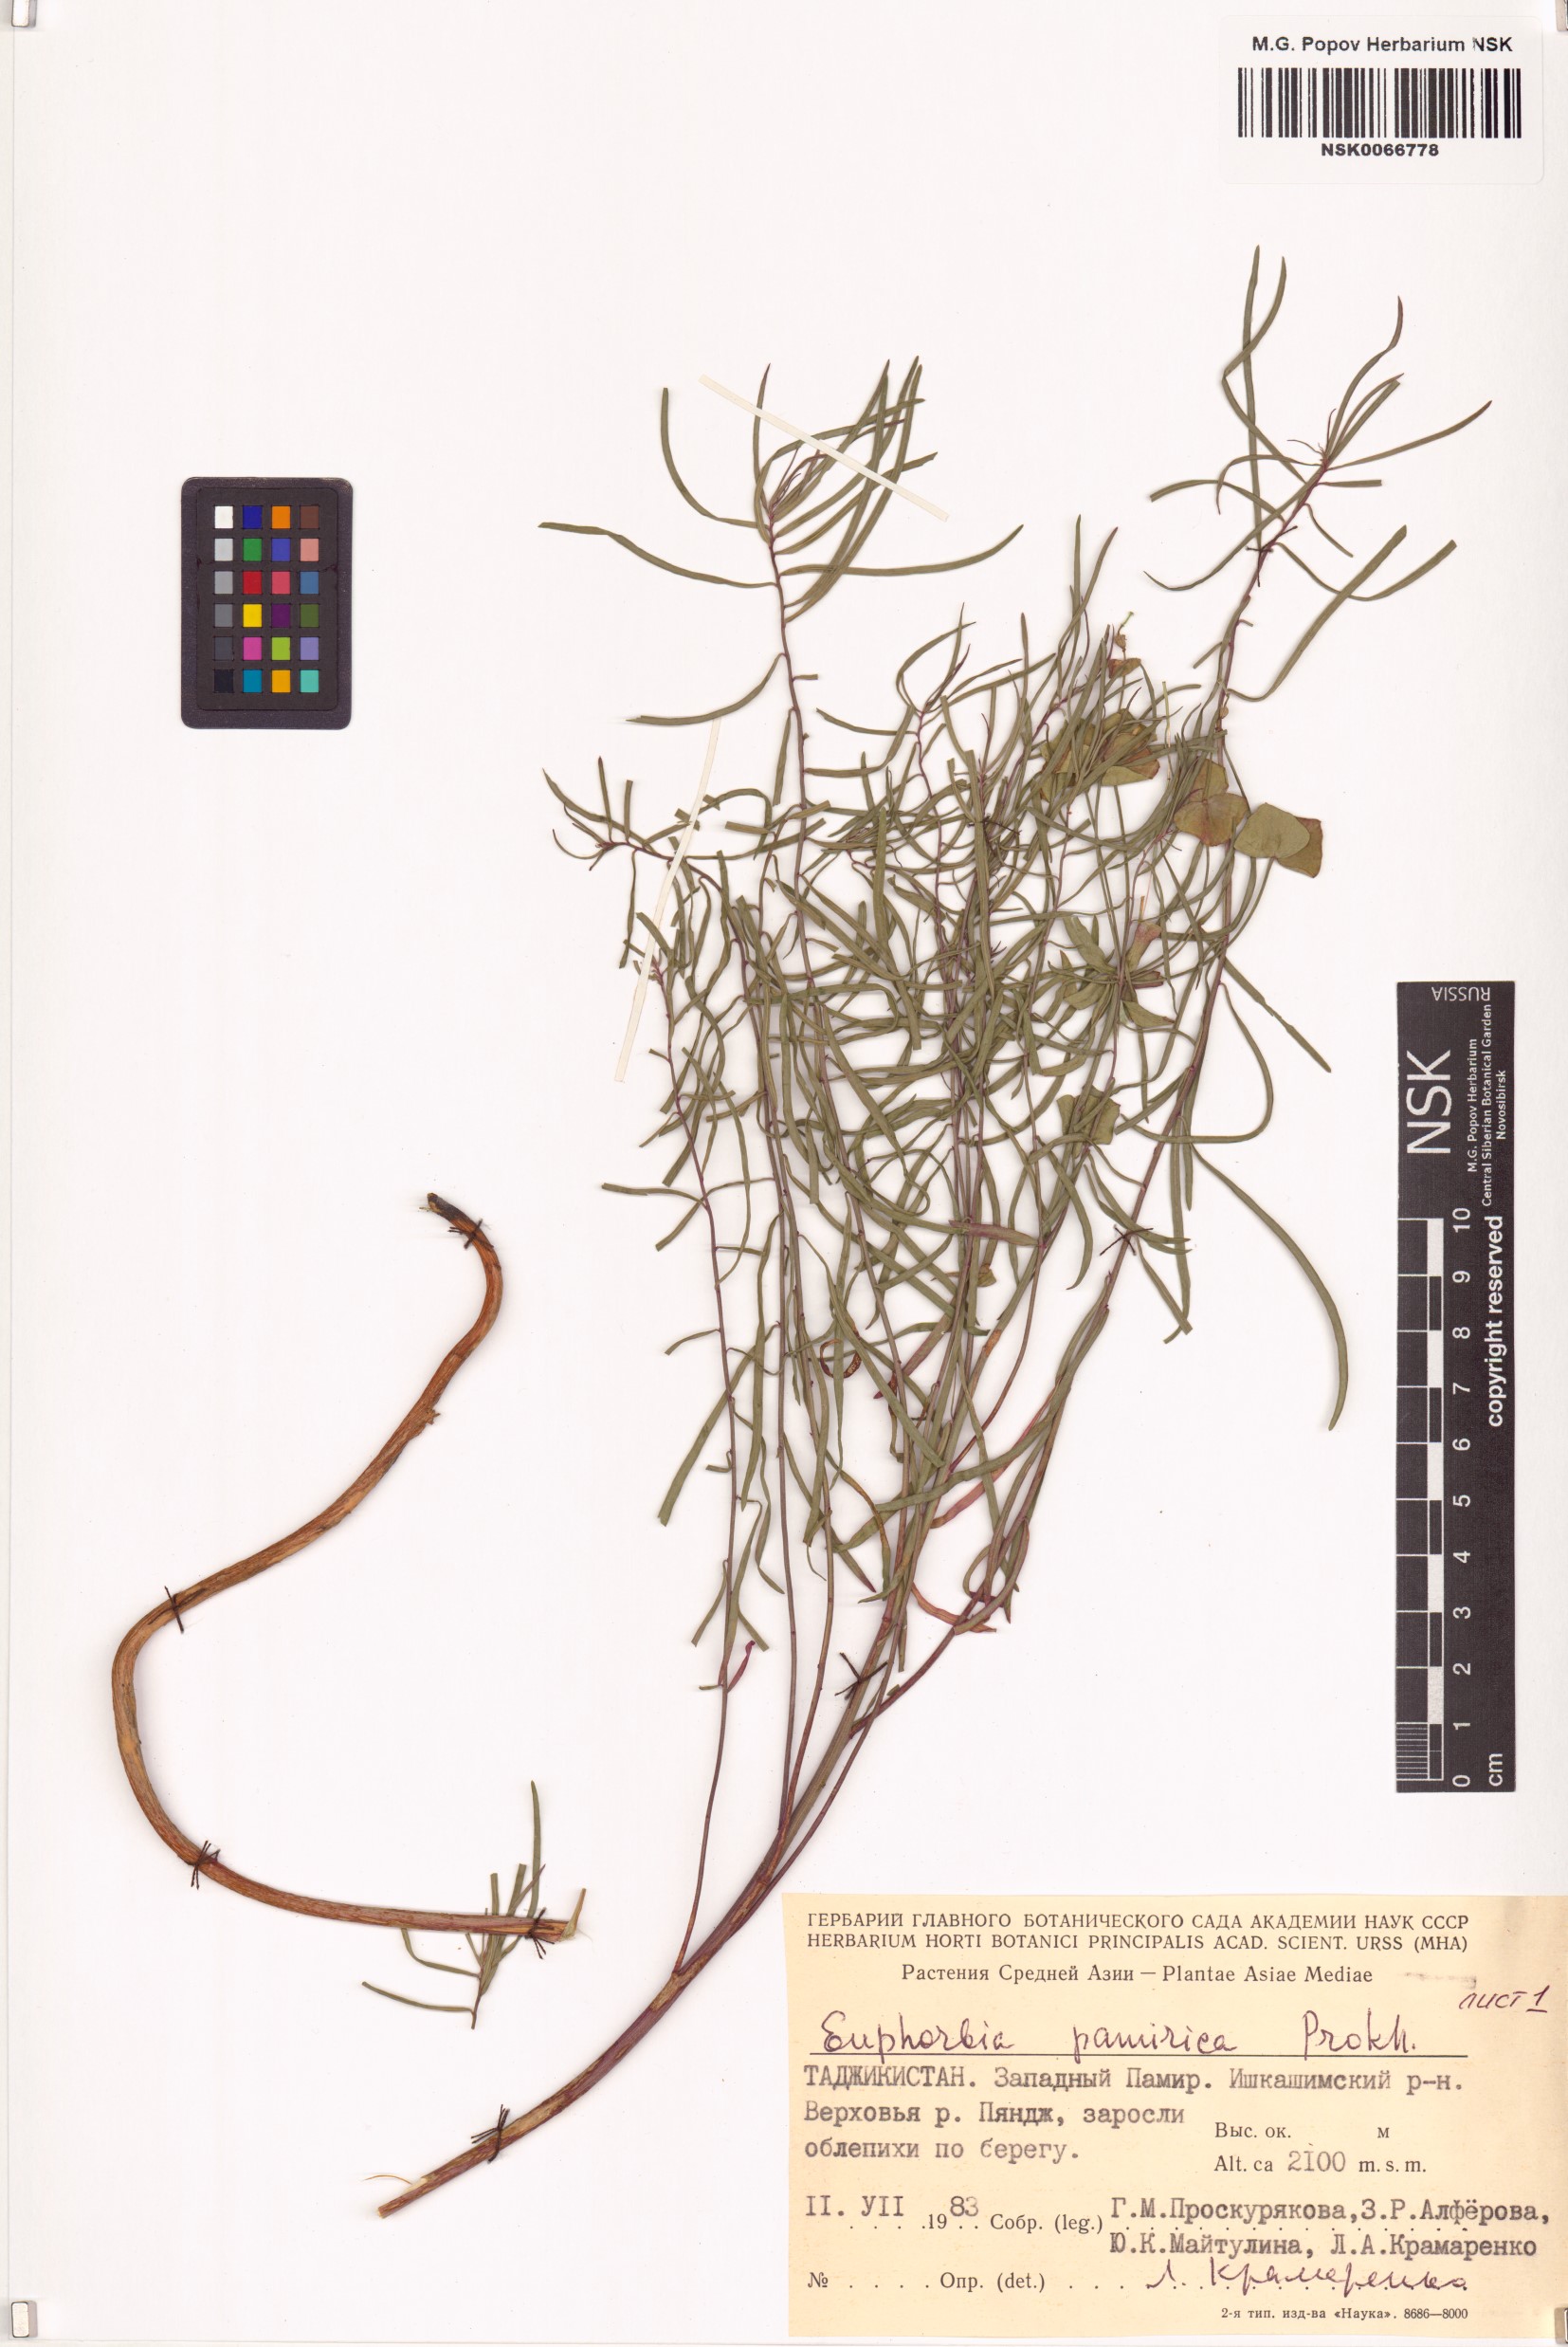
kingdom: Plantae
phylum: Tracheophyta
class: Magnoliopsida
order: Malpighiales
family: Euphorbiaceae
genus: Euphorbia
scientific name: Euphorbia pamirica
